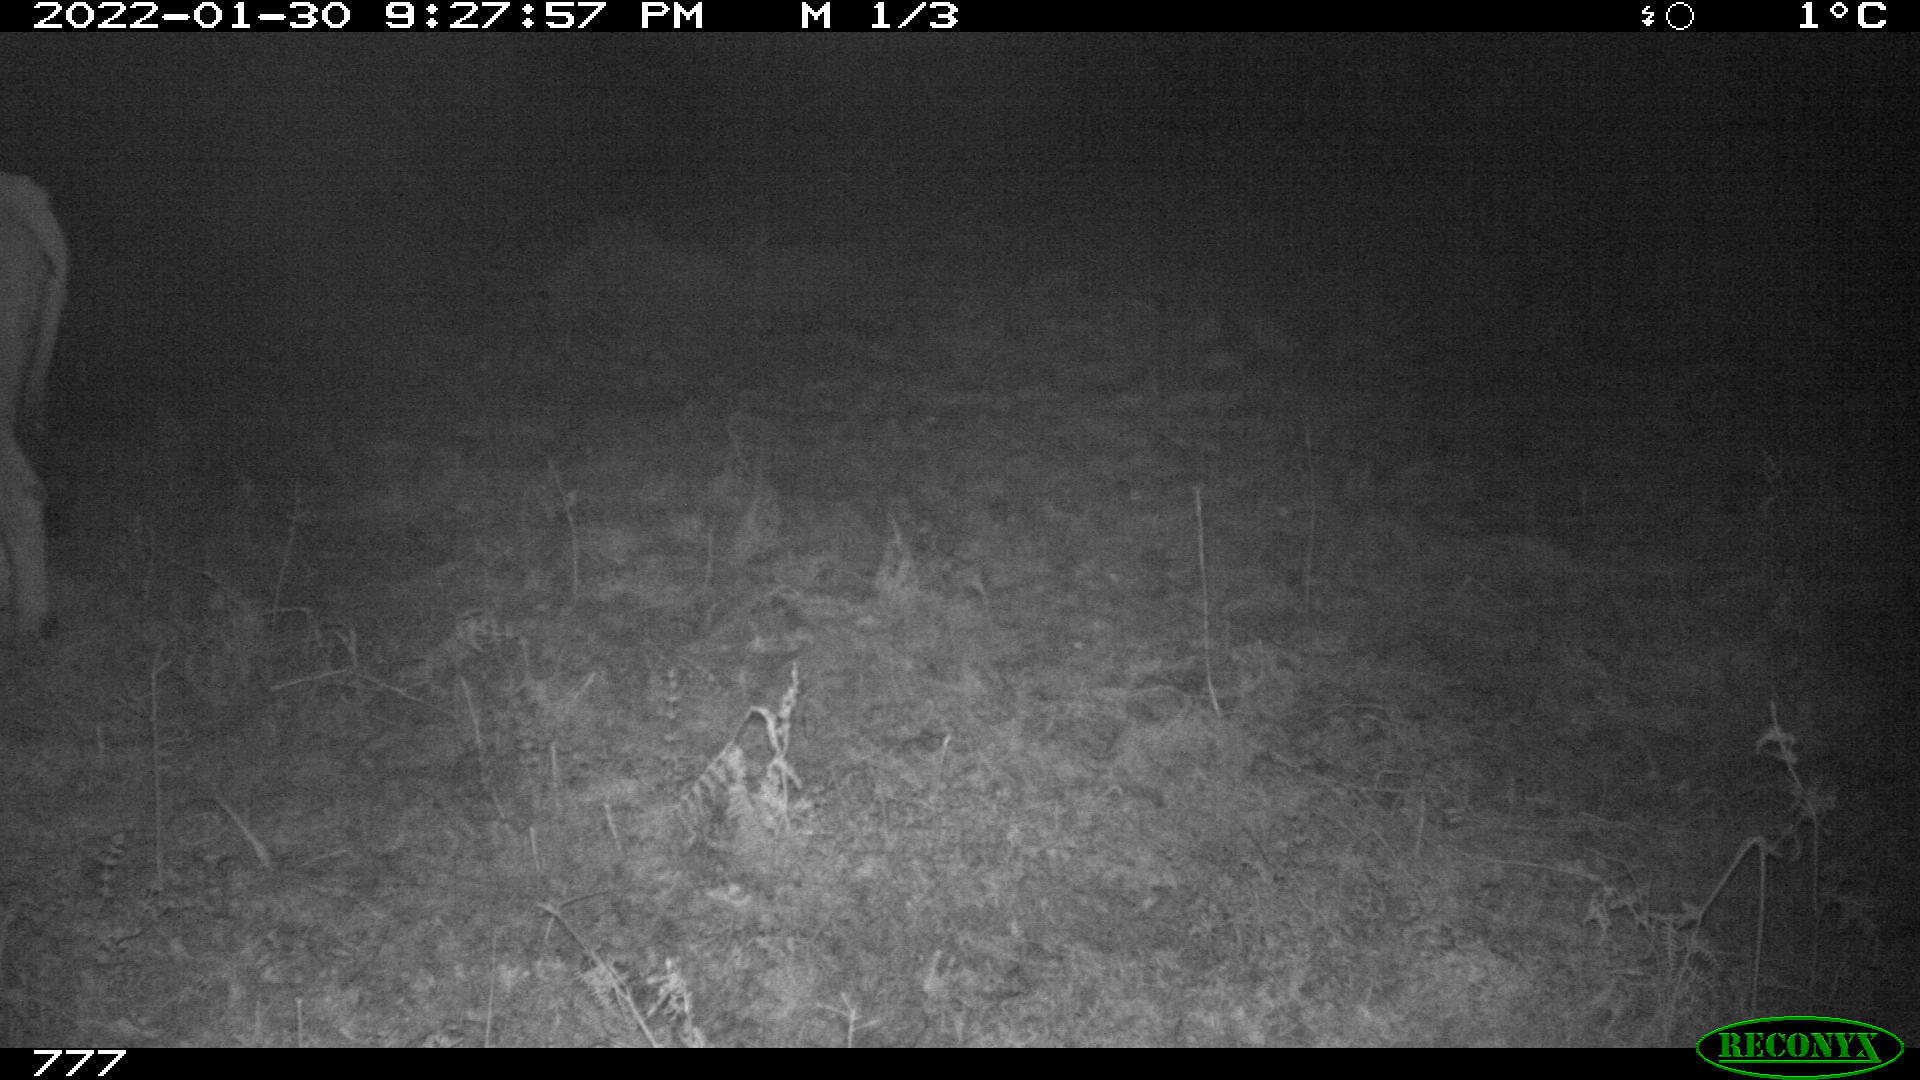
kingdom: Animalia
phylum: Chordata
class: Mammalia
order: Artiodactyla
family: Bovidae
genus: Bos
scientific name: Bos taurus
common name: Domesticated cattle
